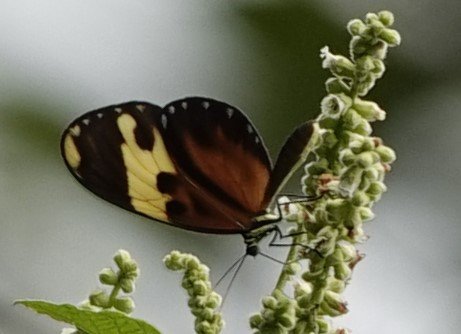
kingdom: Animalia
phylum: Arthropoda
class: Insecta
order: Lepidoptera
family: Nymphalidae
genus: Ceratinia
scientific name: Ceratinia tutia
